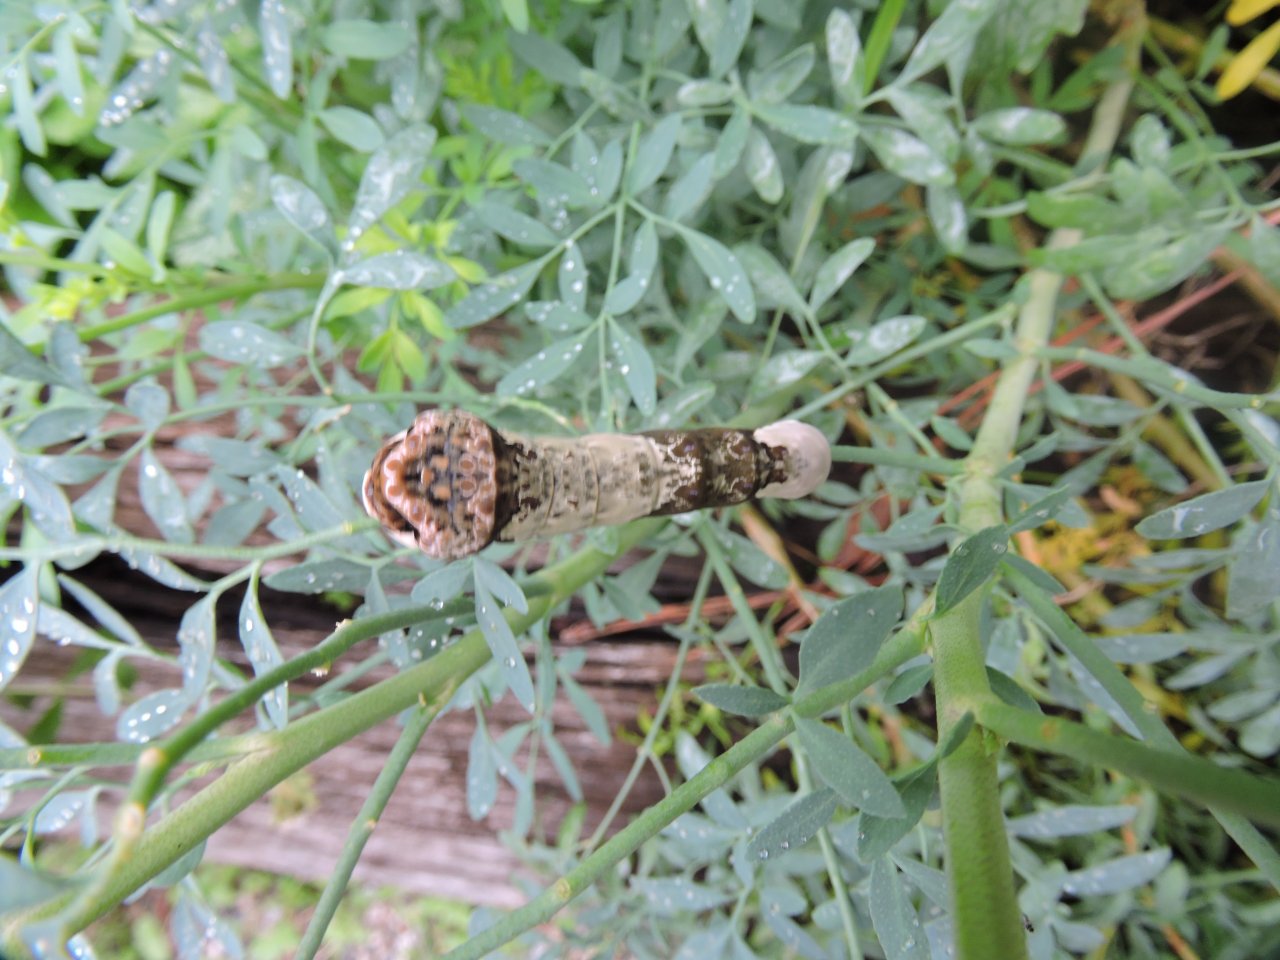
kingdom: Animalia
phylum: Arthropoda
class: Insecta
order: Lepidoptera
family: Papilionidae
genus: Papilio
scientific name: Papilio cresphontes
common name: Eastern Giant Swallowtail
